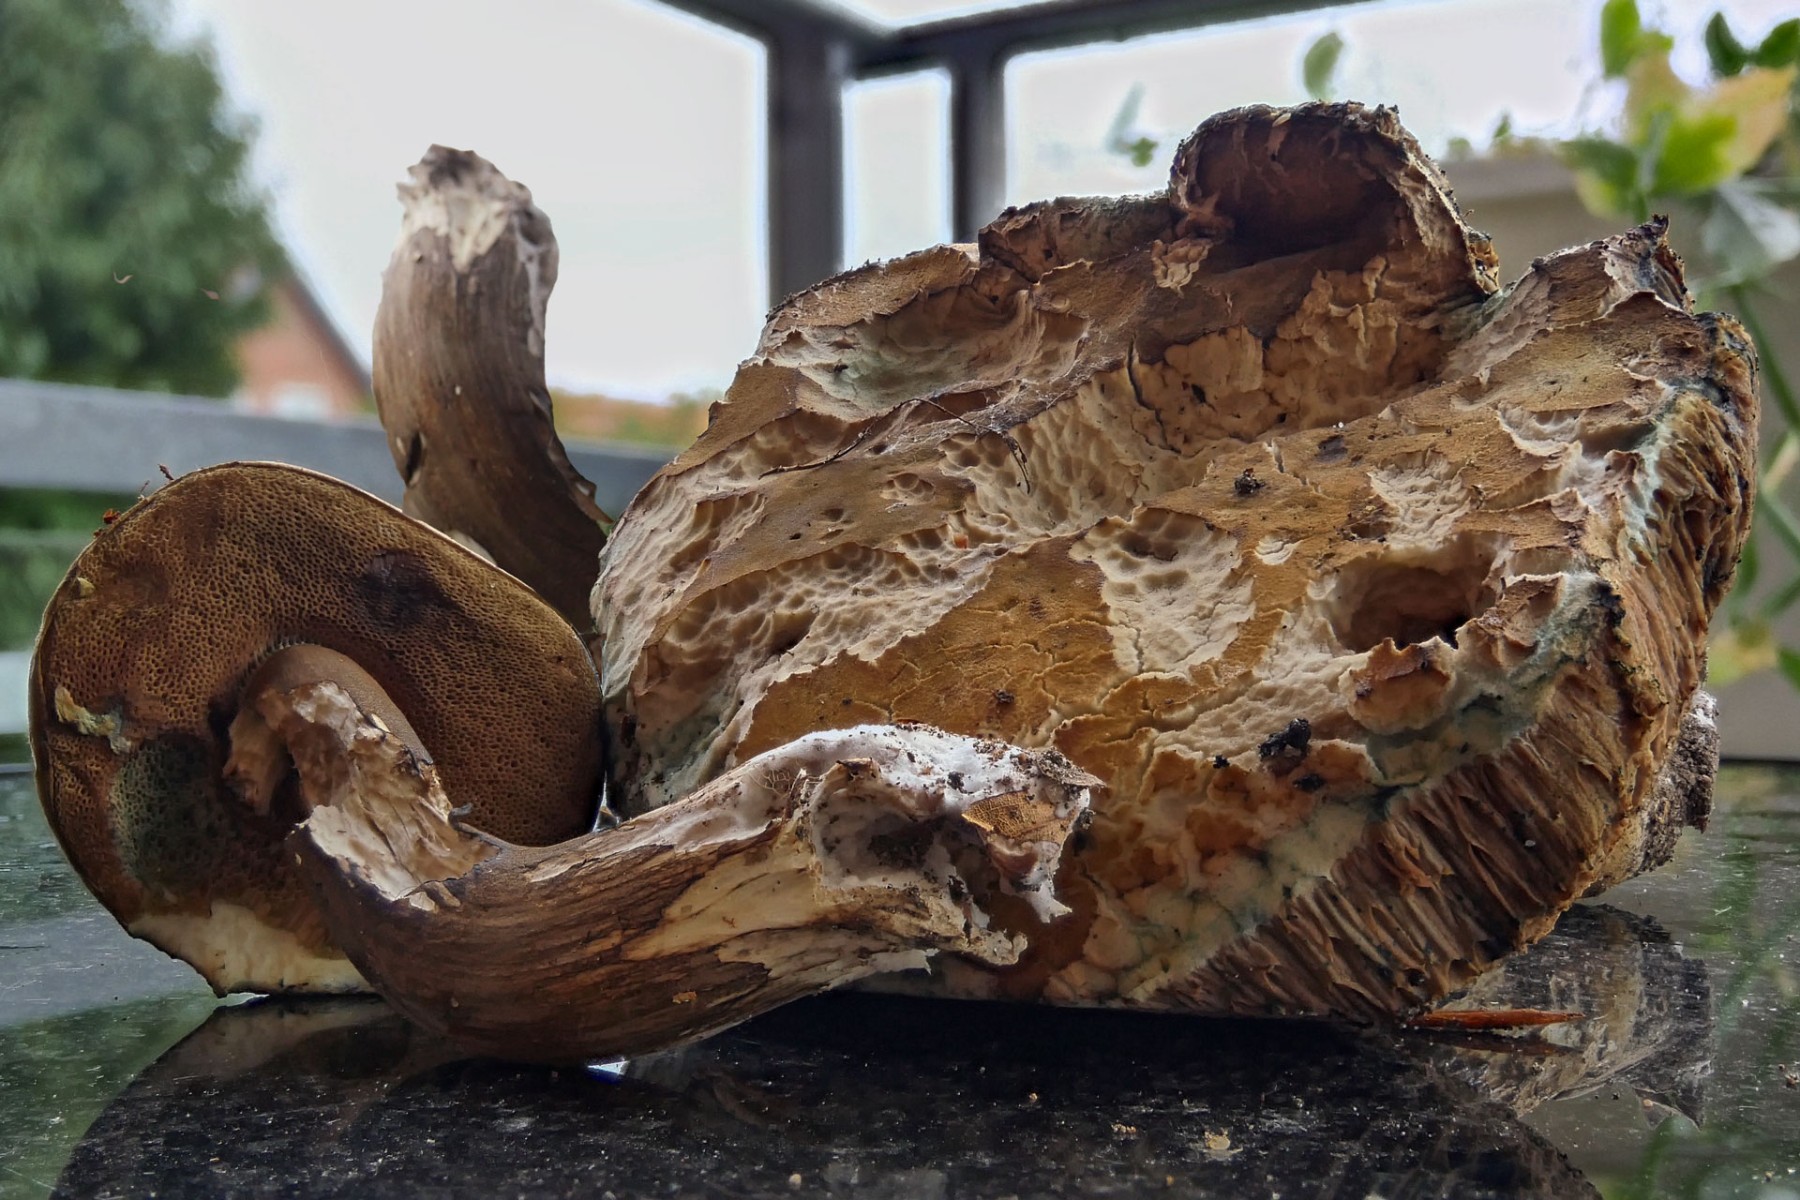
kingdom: Fungi
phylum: Basidiomycota
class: Agaricomycetes
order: Boletales
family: Boletaceae
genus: Porphyrellus
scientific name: Porphyrellus porphyrosporus
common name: sodrørhat
